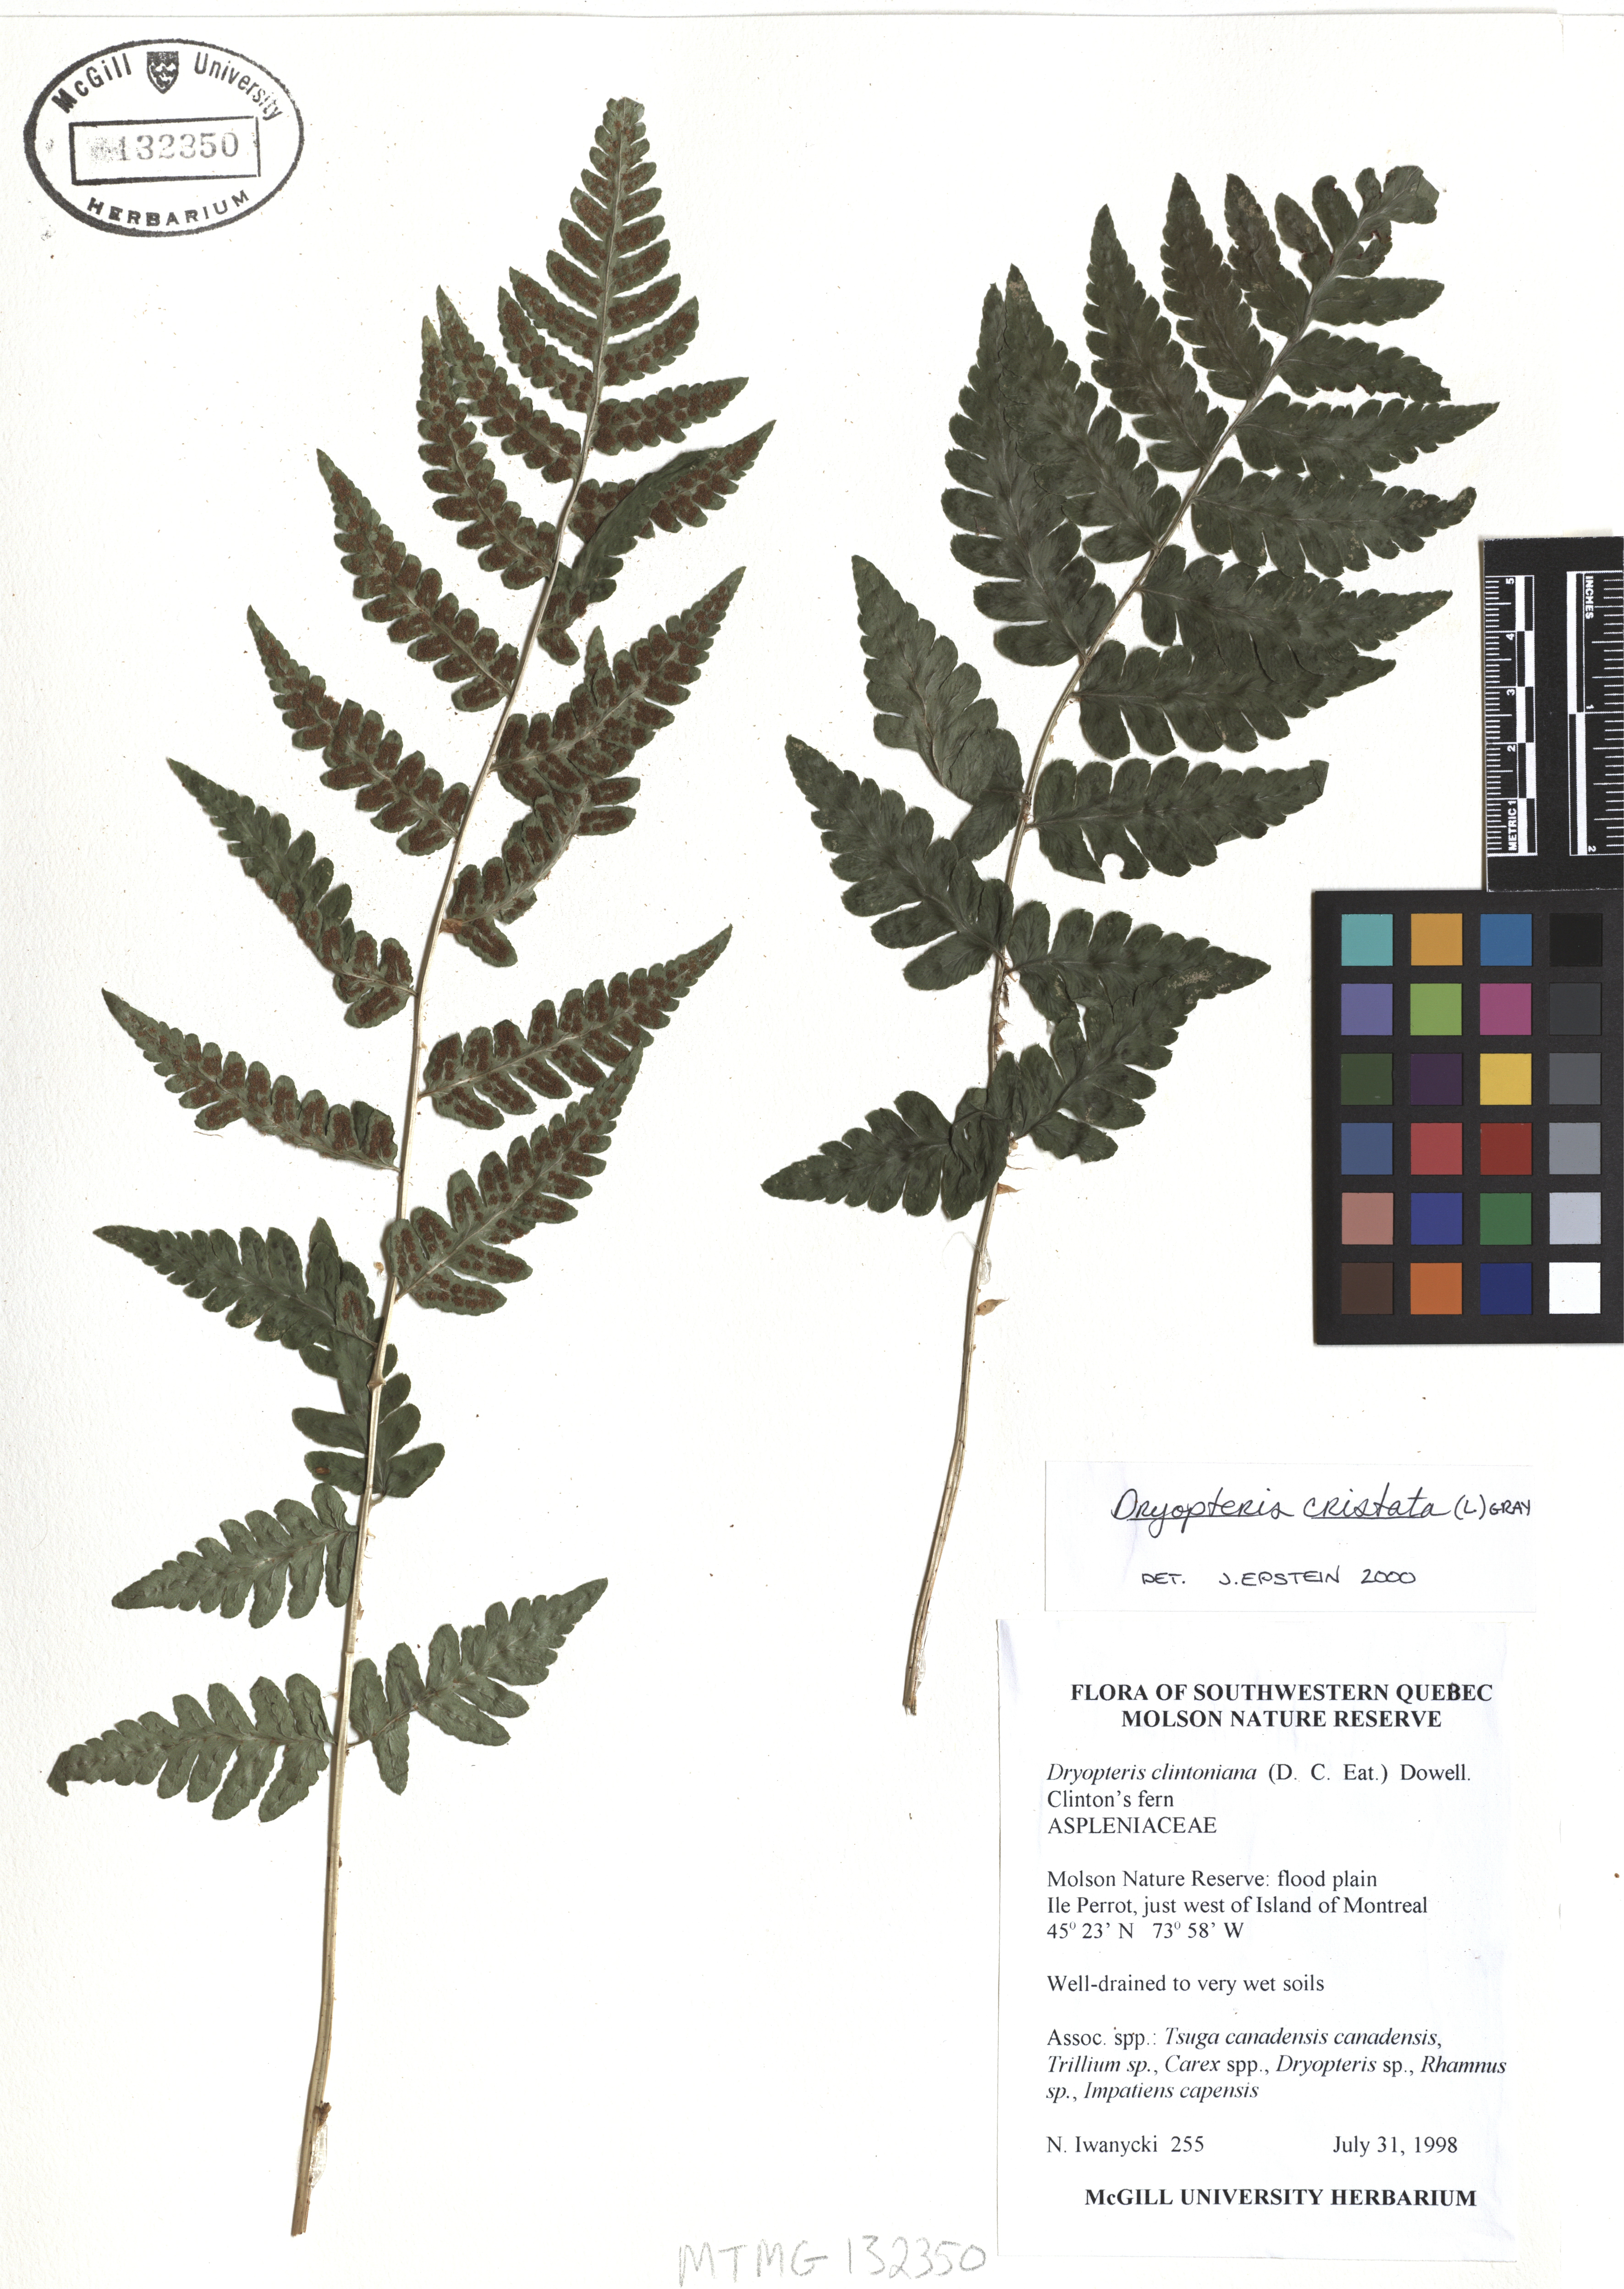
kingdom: Plantae
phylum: Tracheophyta
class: Polypodiopsida
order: Polypodiales
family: Dryopteridaceae
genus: Dryopteris
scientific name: Dryopteris cristata
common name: Crested wood fern
